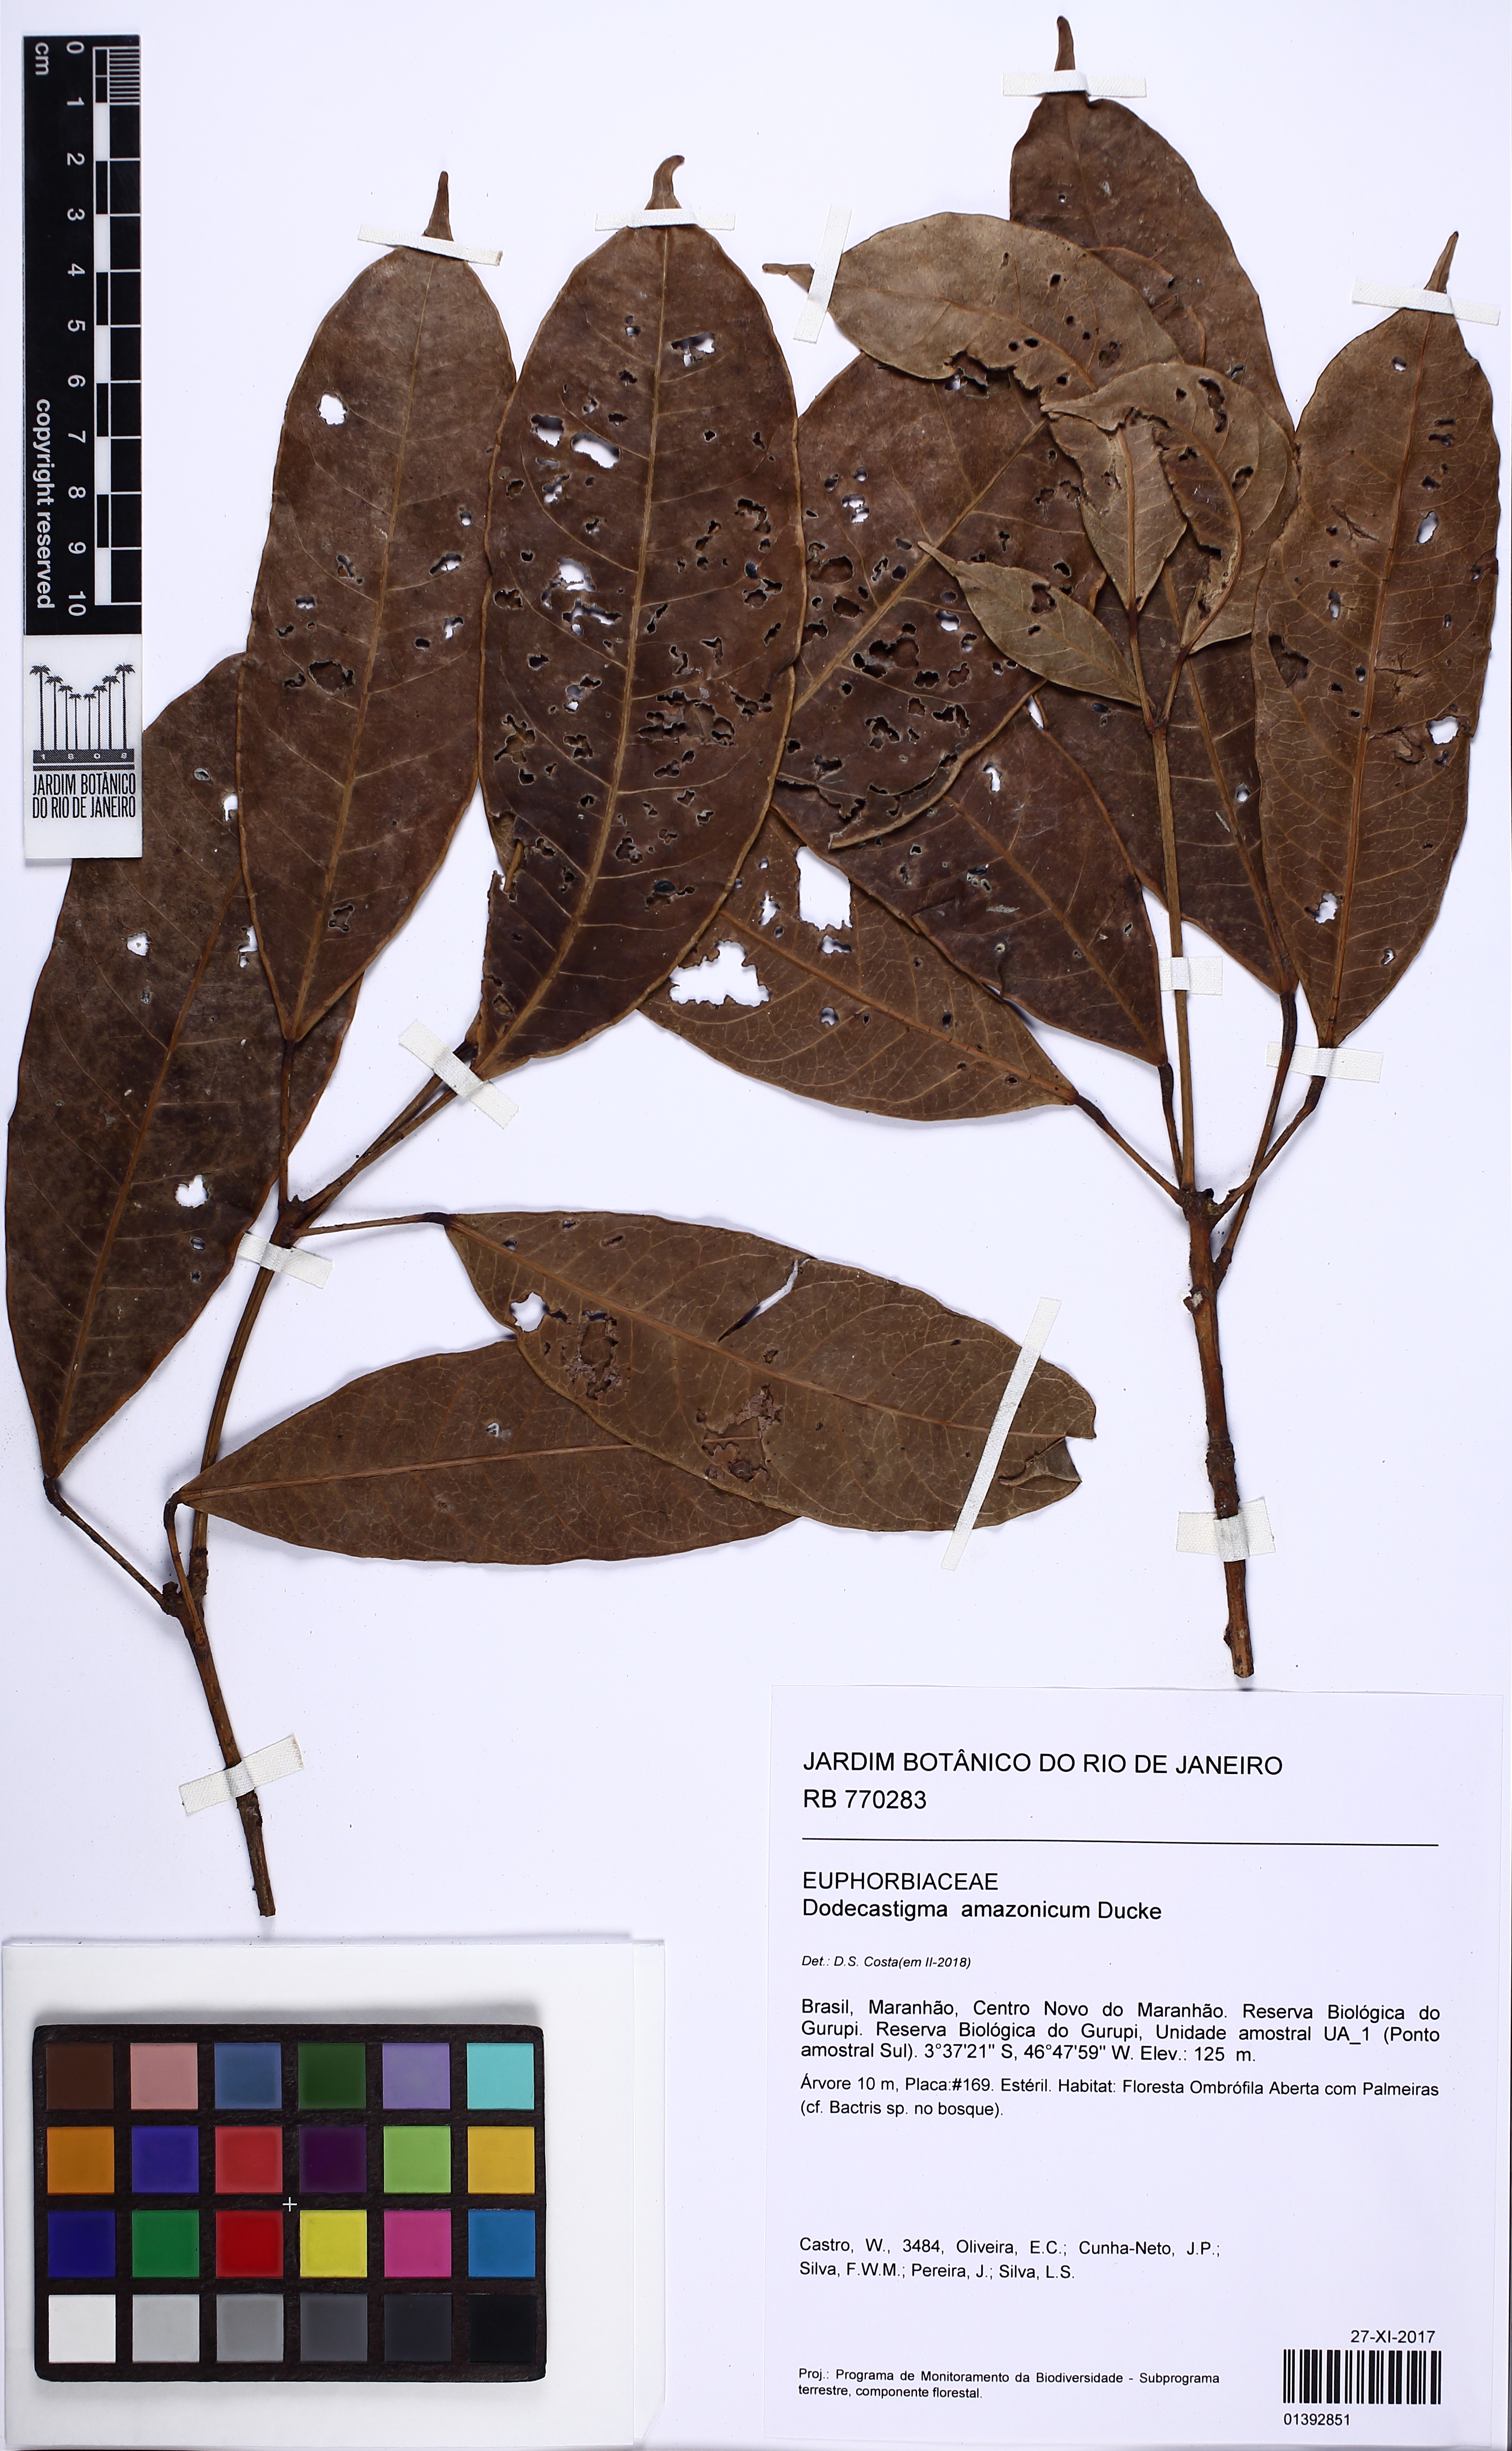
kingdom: Plantae
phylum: Tracheophyta
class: Magnoliopsida
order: Malpighiales
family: Euphorbiaceae
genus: Dodecastigma
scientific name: Dodecastigma amazonicum
